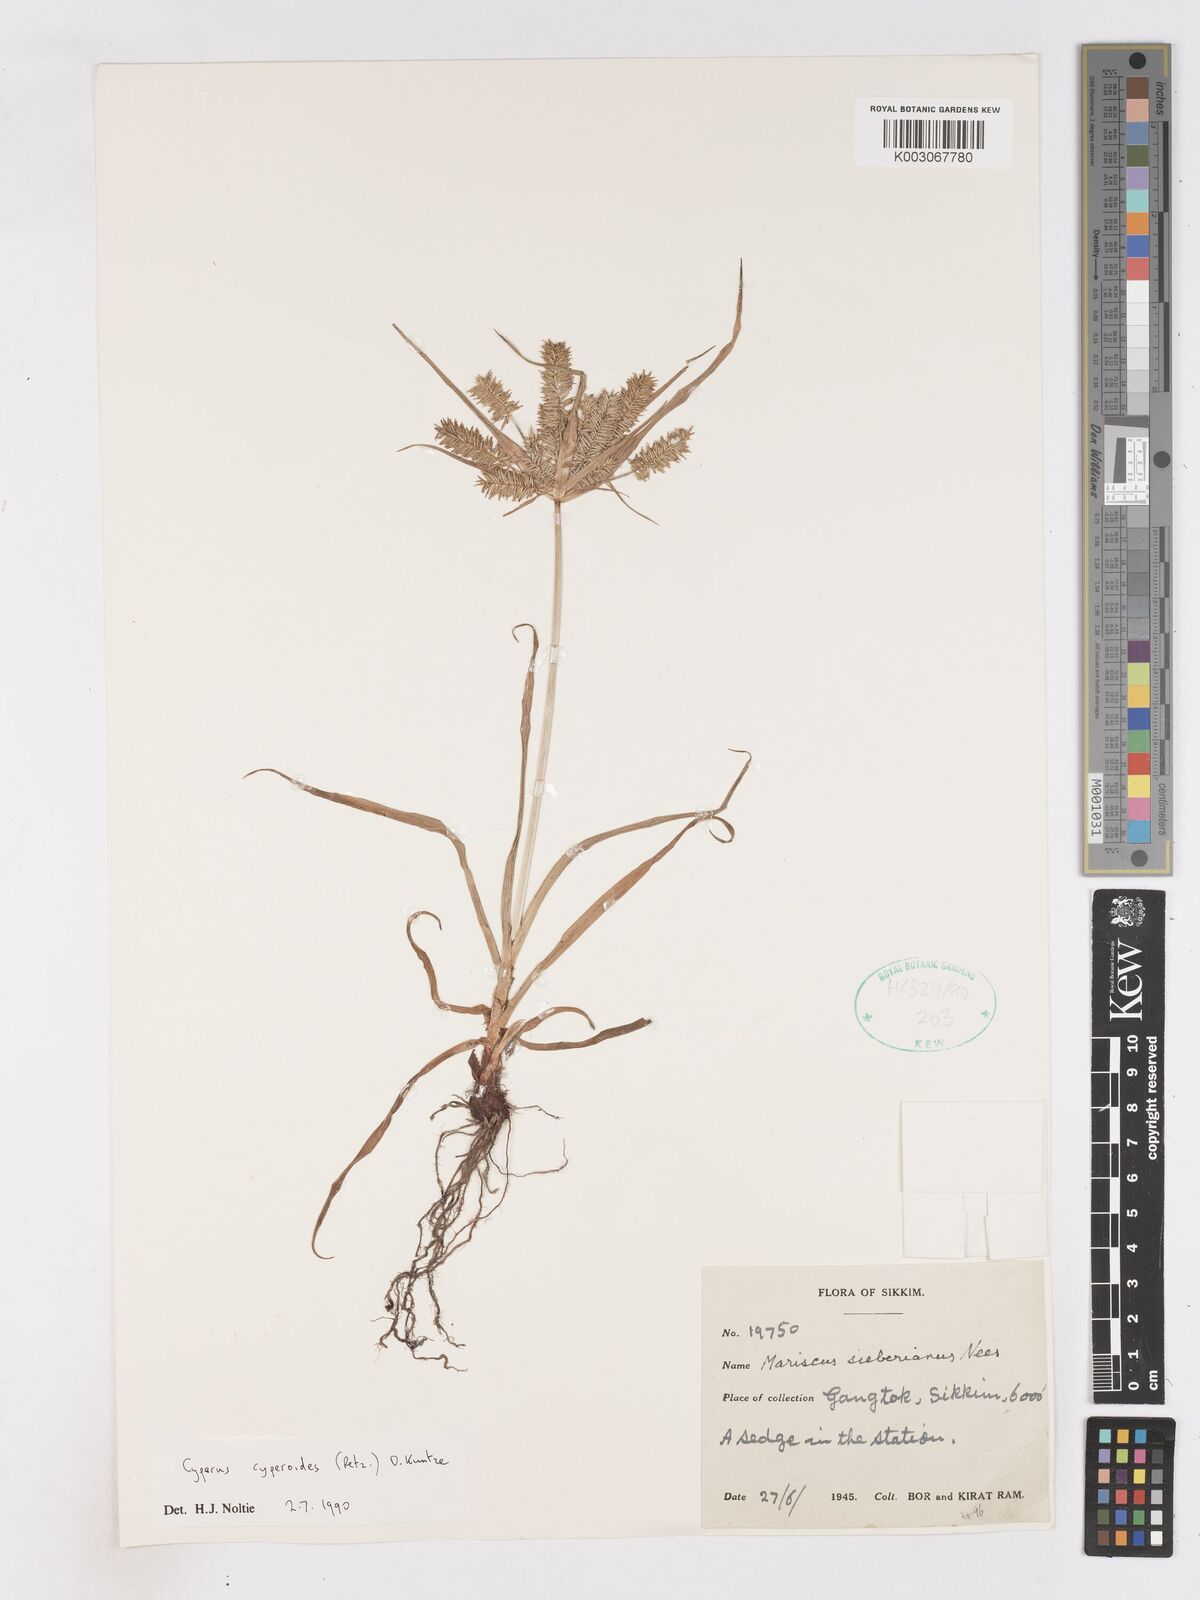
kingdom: Plantae
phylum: Tracheophyta
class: Liliopsida
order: Poales
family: Cyperaceae
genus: Cyperus
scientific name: Cyperus cyperoides
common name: Pacific island flat sedge
